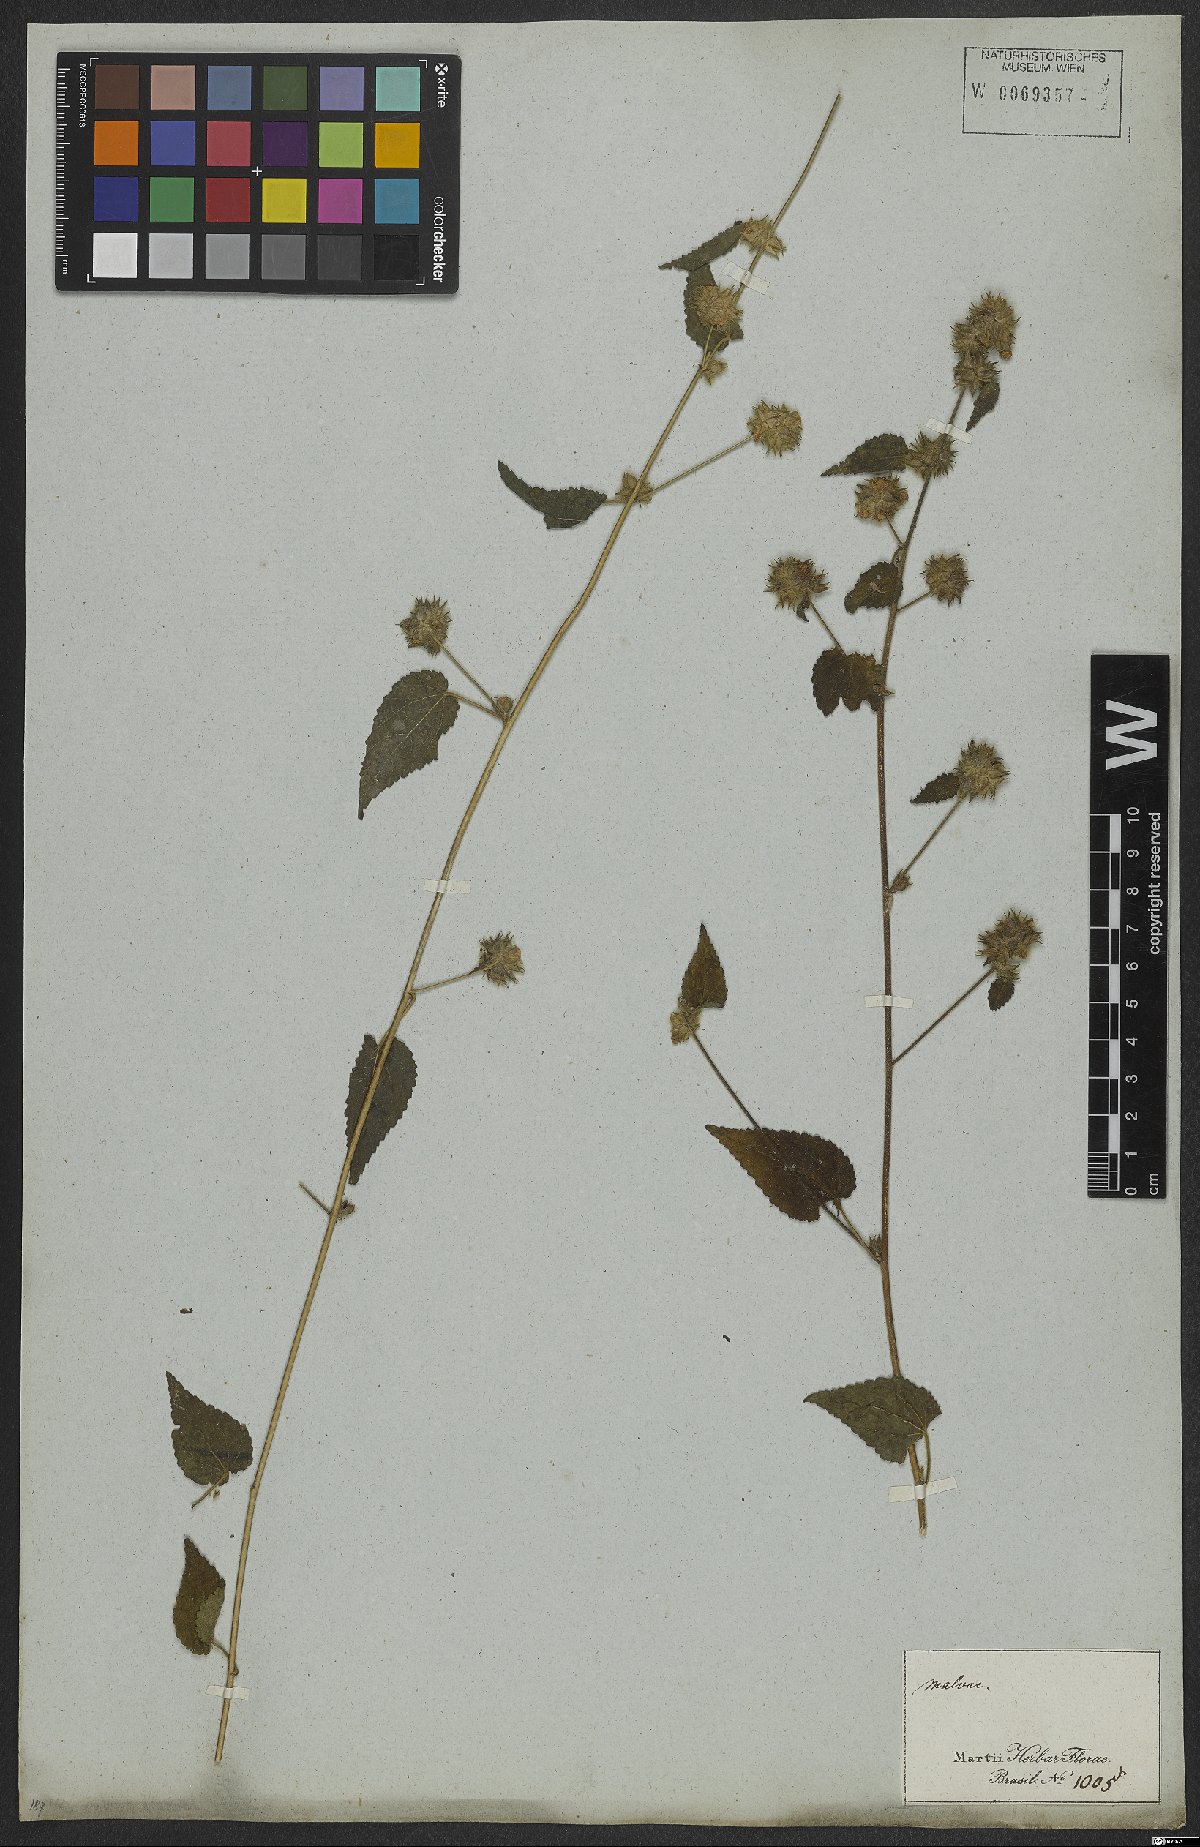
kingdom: Plantae
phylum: Tracheophyta
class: Magnoliopsida
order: Malvales
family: Malvaceae
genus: Sida
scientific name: Sida urens
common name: Tropical fanpetals
